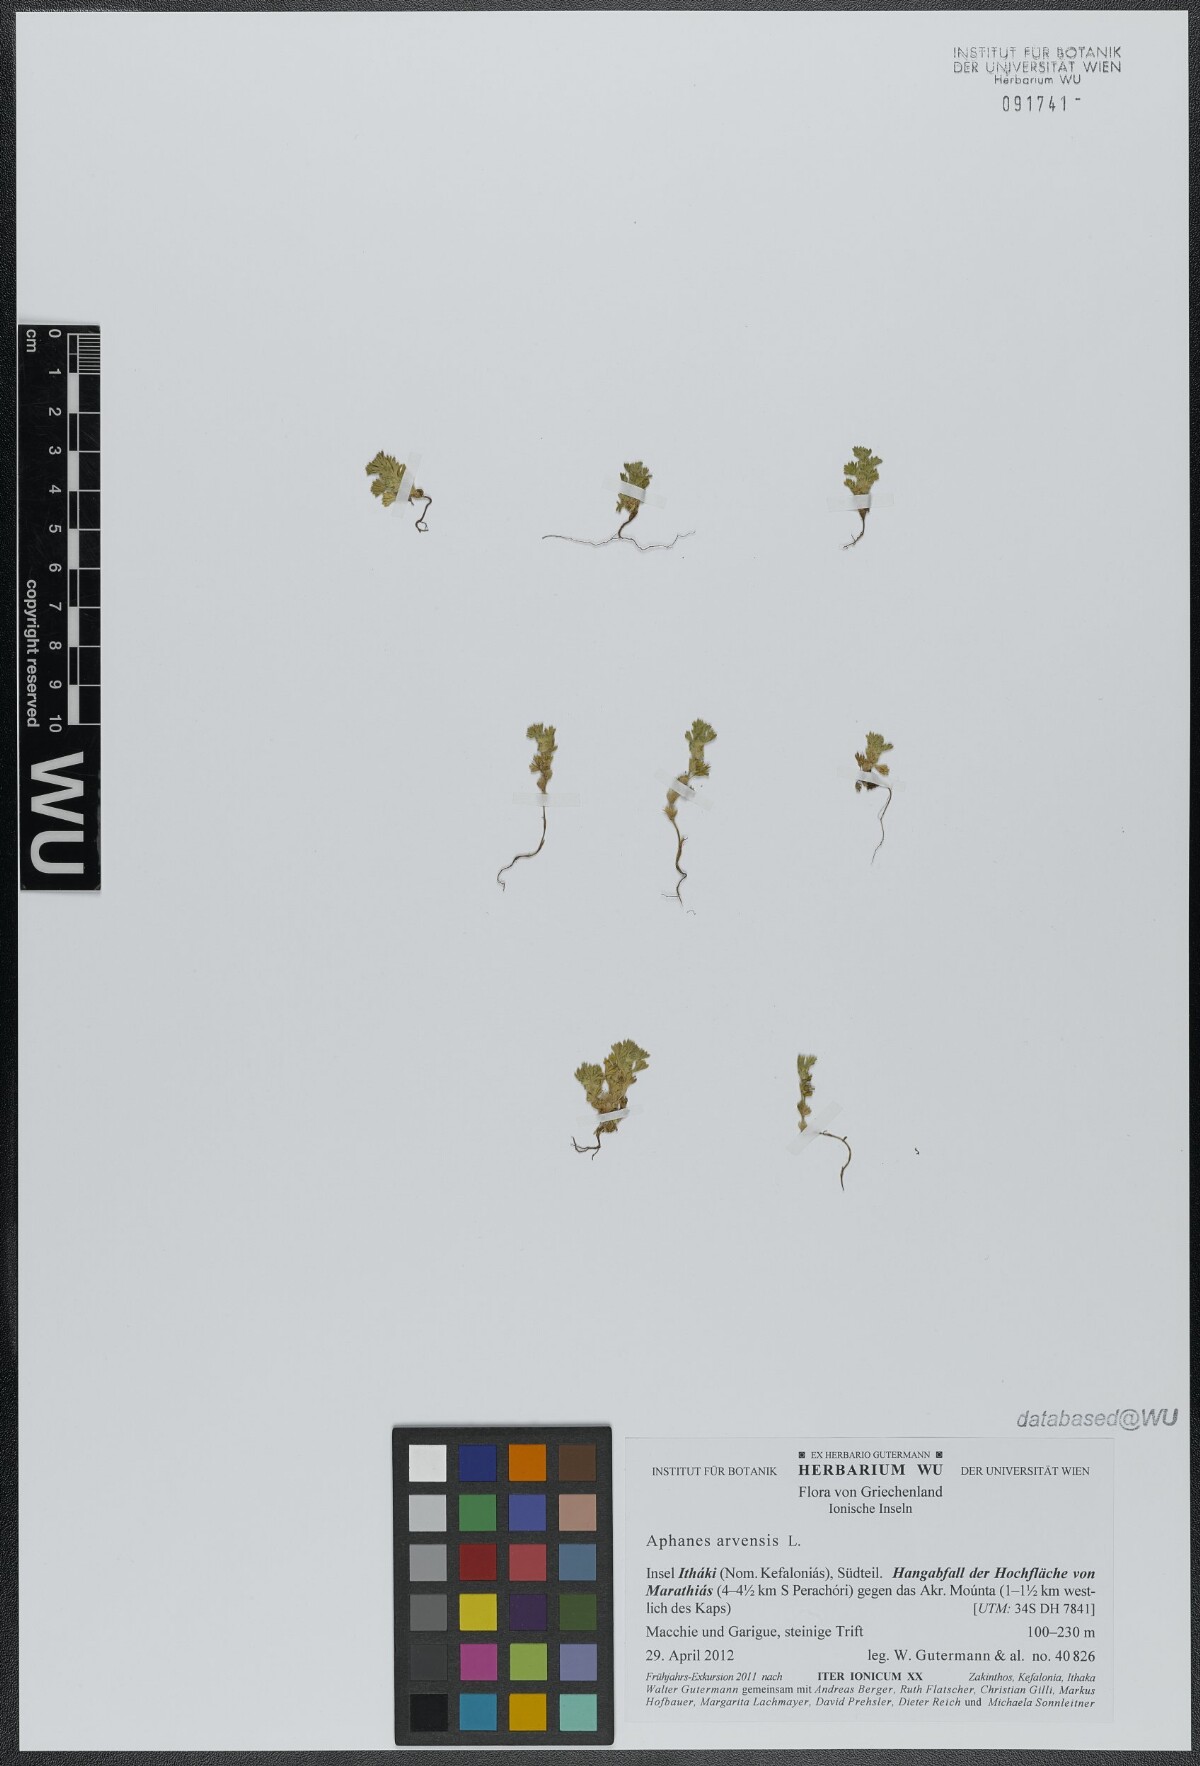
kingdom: Plantae
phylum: Tracheophyta
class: Magnoliopsida
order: Rosales
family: Rosaceae
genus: Aphanes
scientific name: Aphanes arvensis
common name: Parsley-piert
